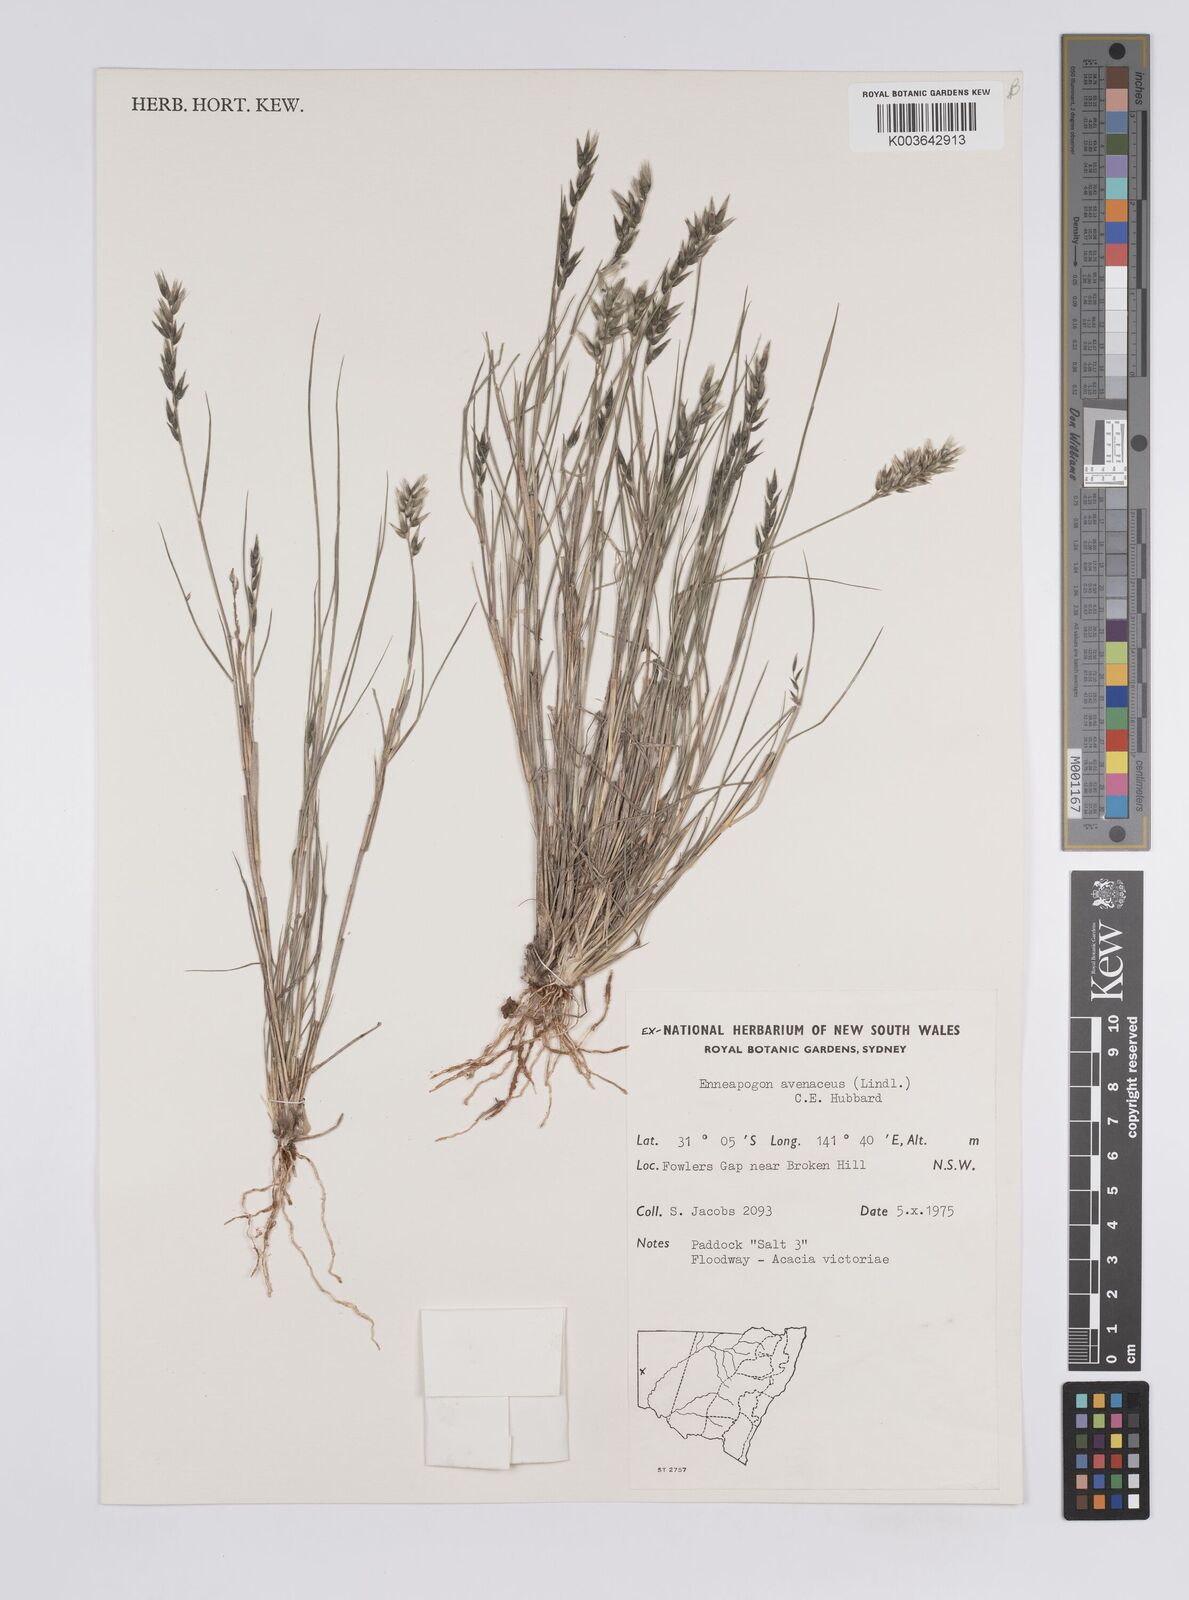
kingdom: Plantae
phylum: Tracheophyta
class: Liliopsida
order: Poales
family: Poaceae
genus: Enneapogon
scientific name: Enneapogon avenaceus
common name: Hairy oat grass
